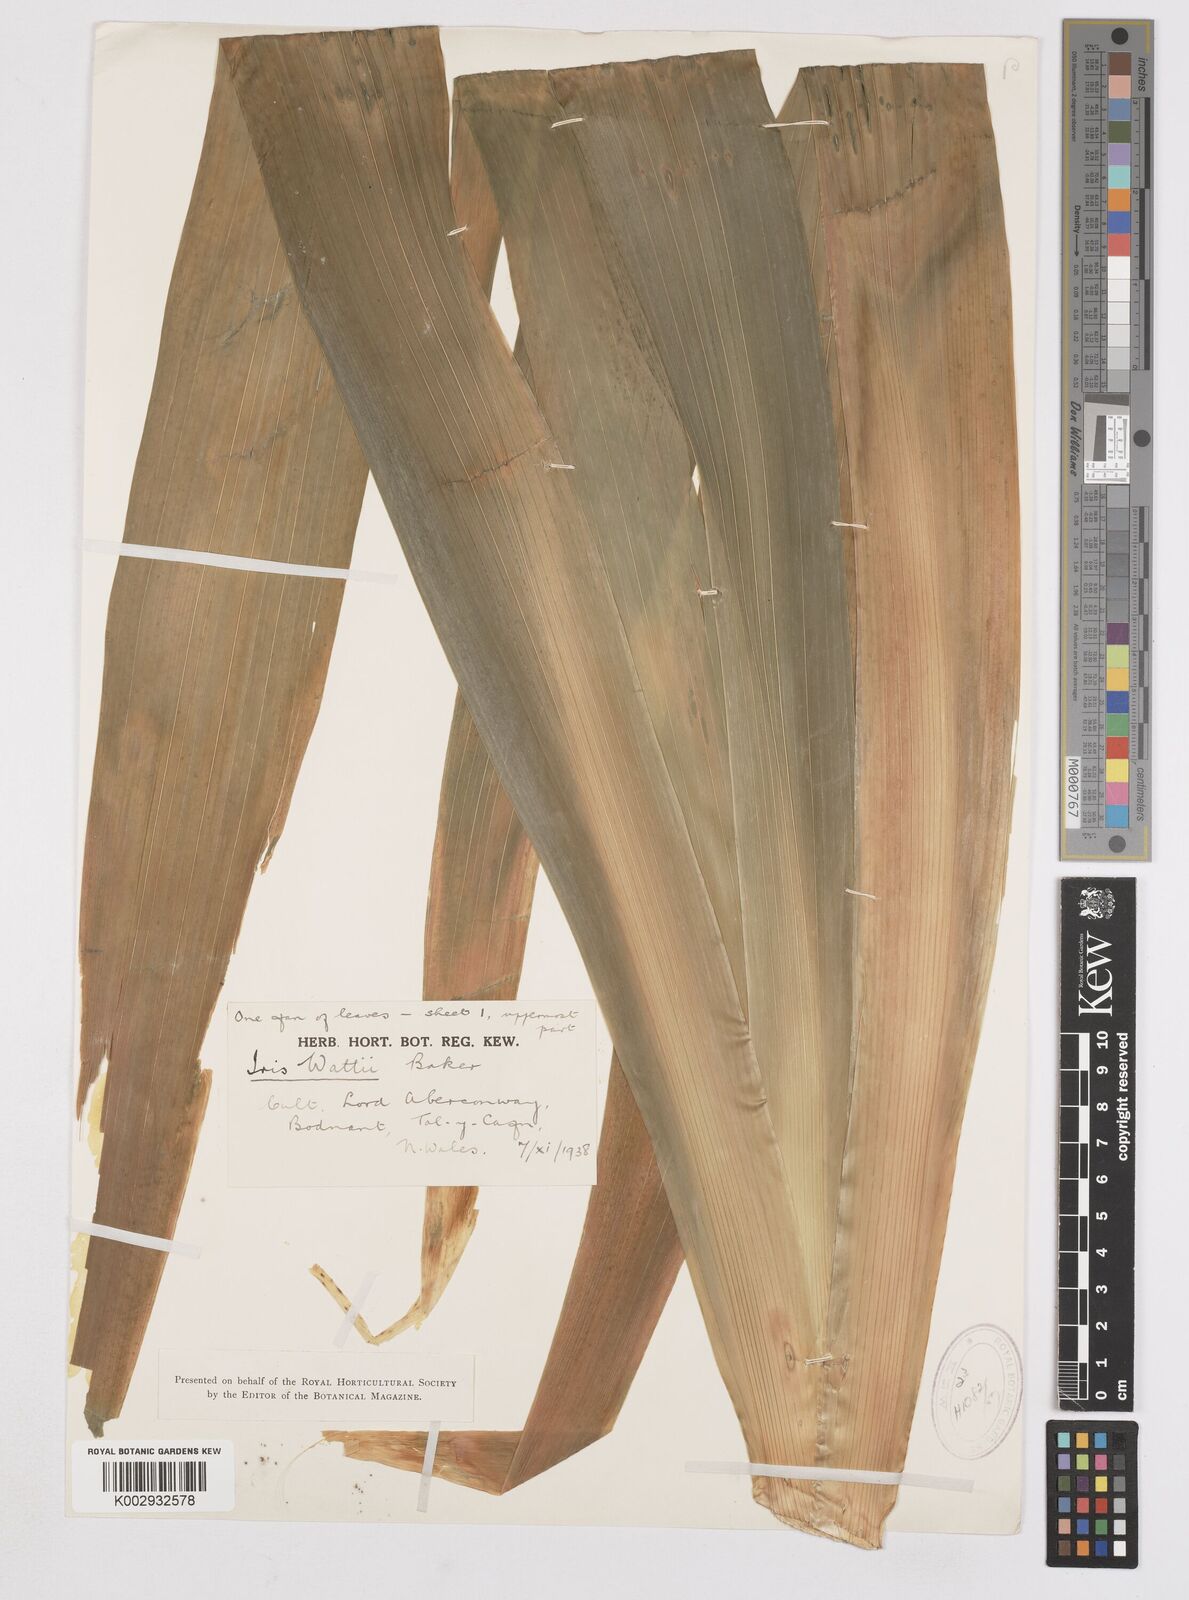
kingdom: Plantae
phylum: Tracheophyta
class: Liliopsida
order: Asparagales
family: Iridaceae
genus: Iris
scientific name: Iris wattii
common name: Fan-shape iris
